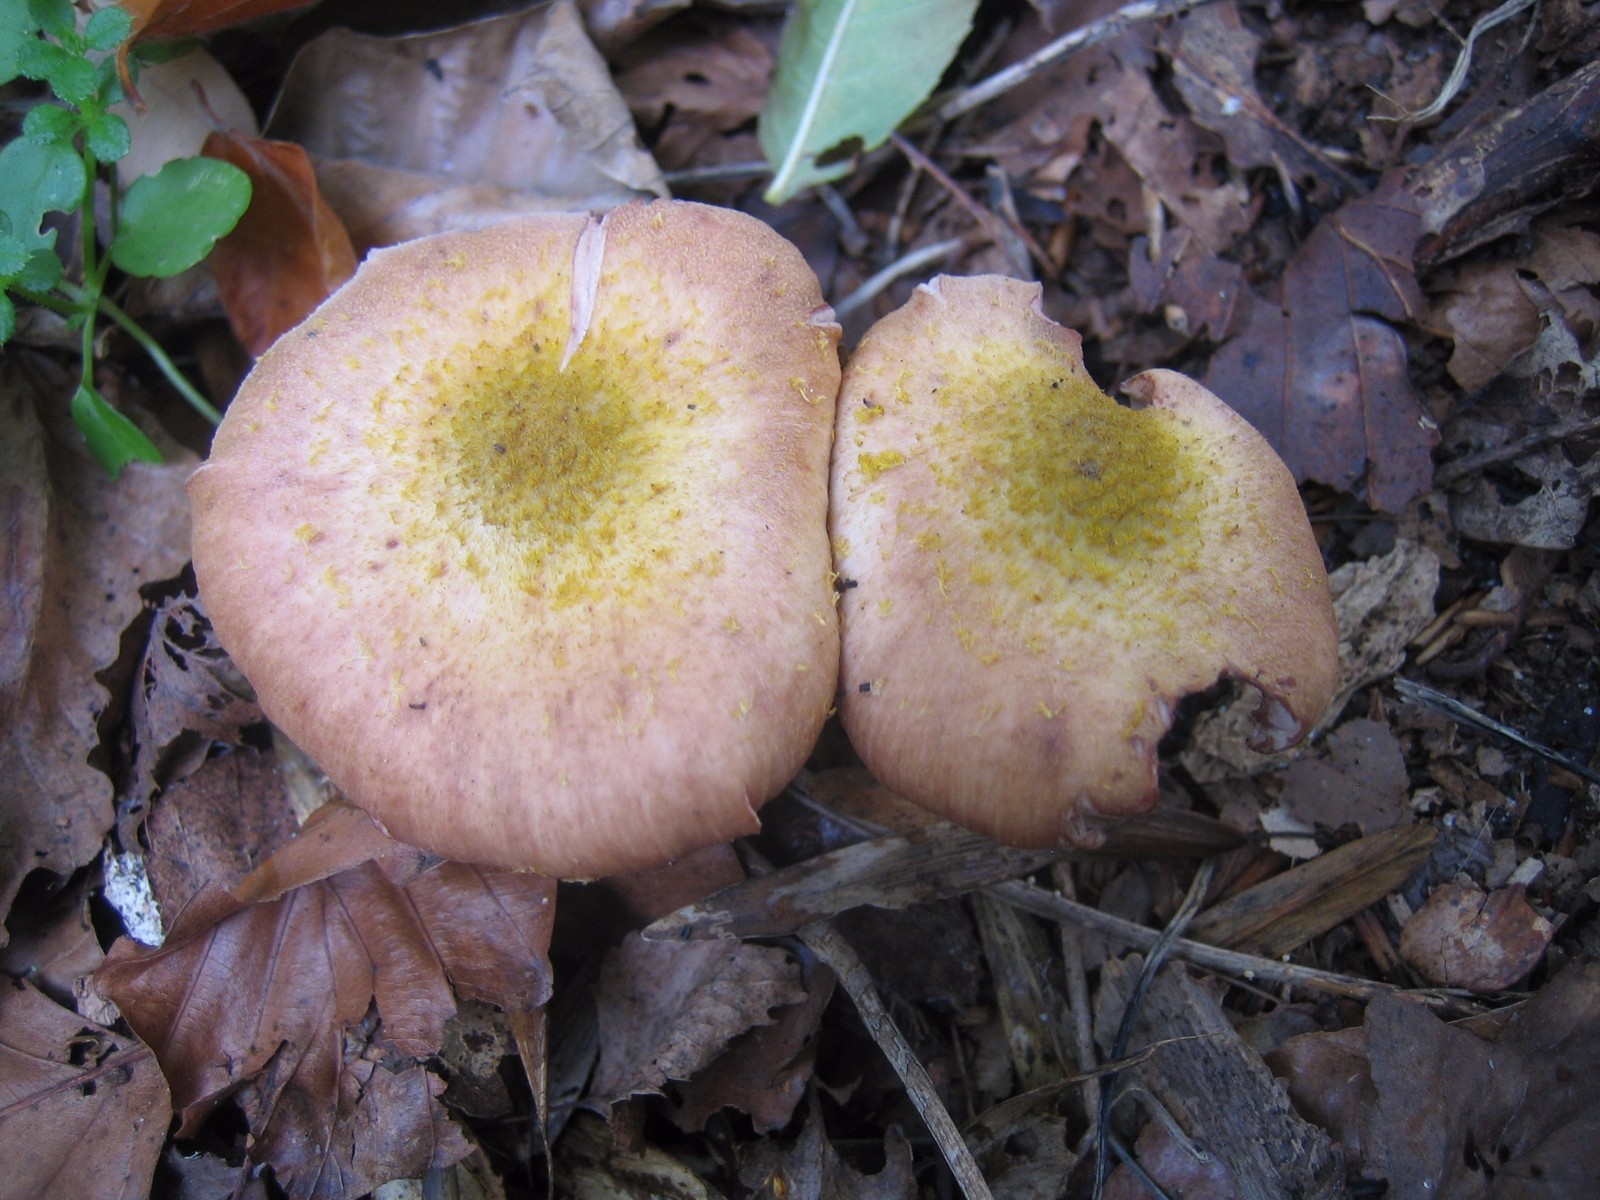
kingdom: Fungi
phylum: Basidiomycota
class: Agaricomycetes
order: Agaricales
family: Physalacriaceae
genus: Armillaria
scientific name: Armillaria lutea
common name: køllestokket honningsvamp
